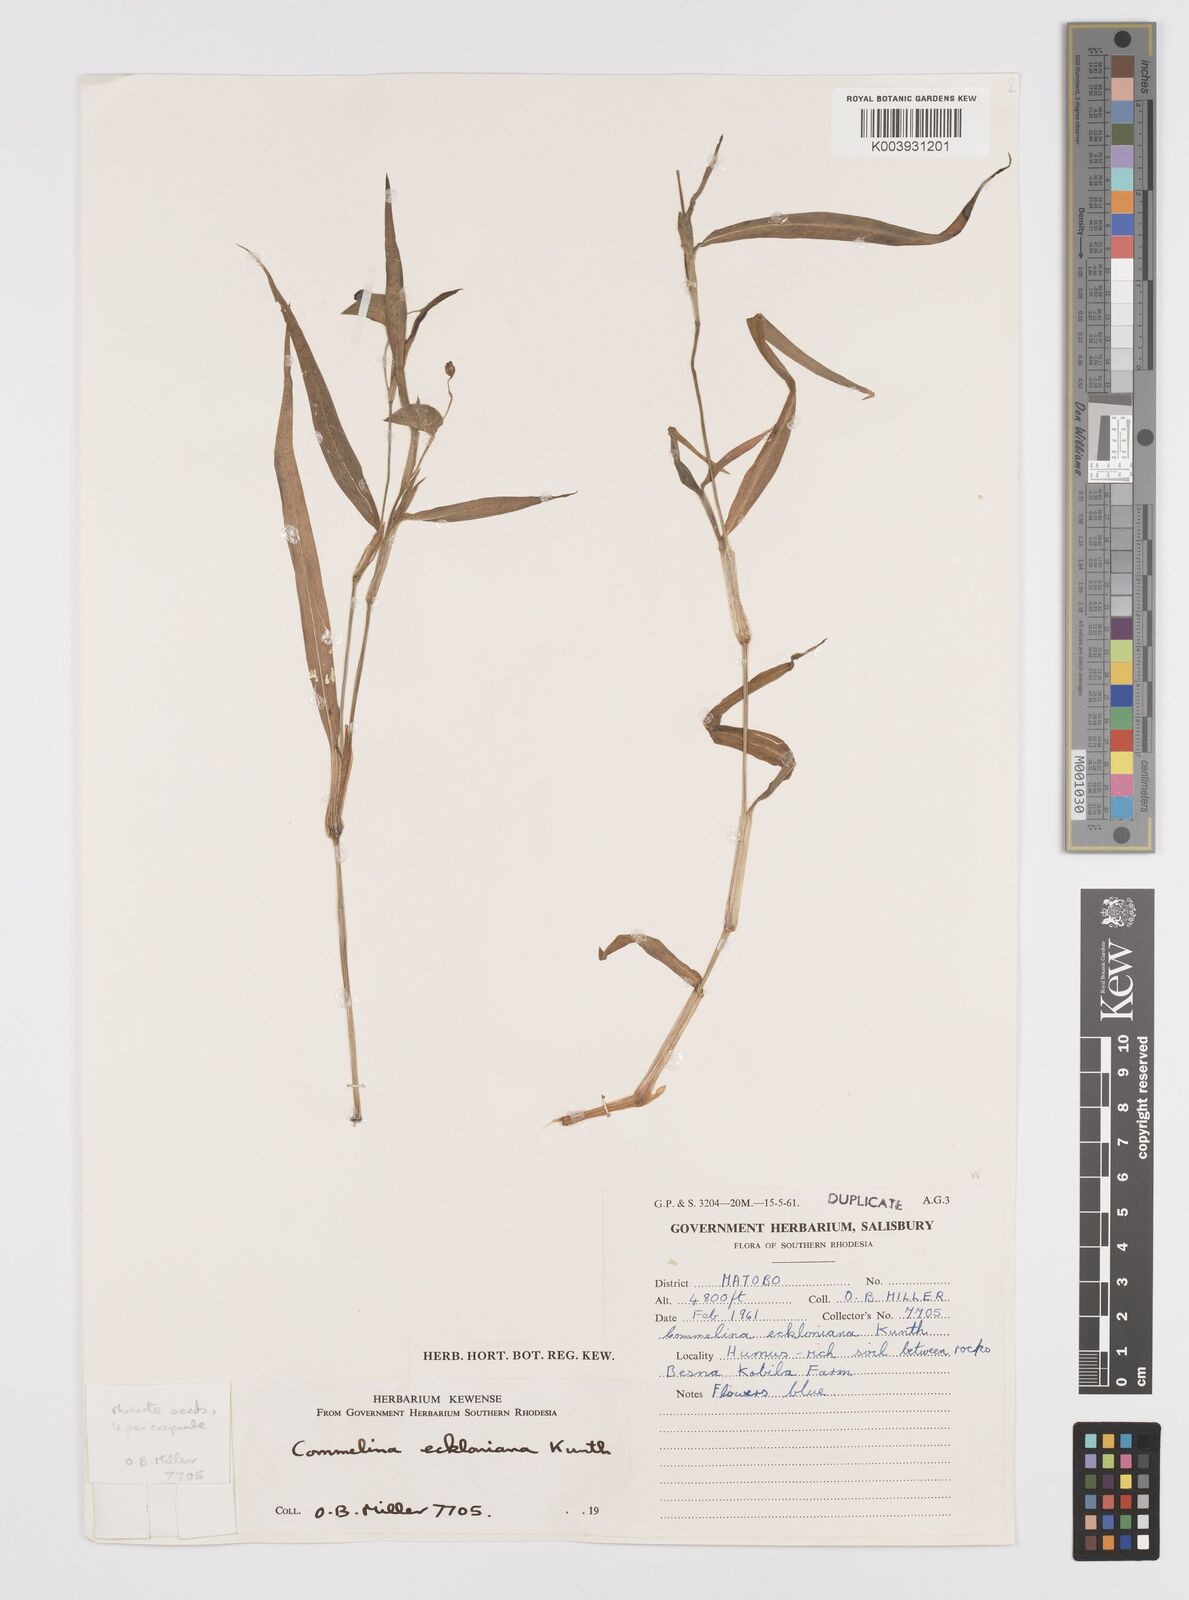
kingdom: Plantae
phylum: Tracheophyta
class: Liliopsida
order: Commelinales
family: Commelinaceae
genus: Commelina
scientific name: Commelina eckloniana
